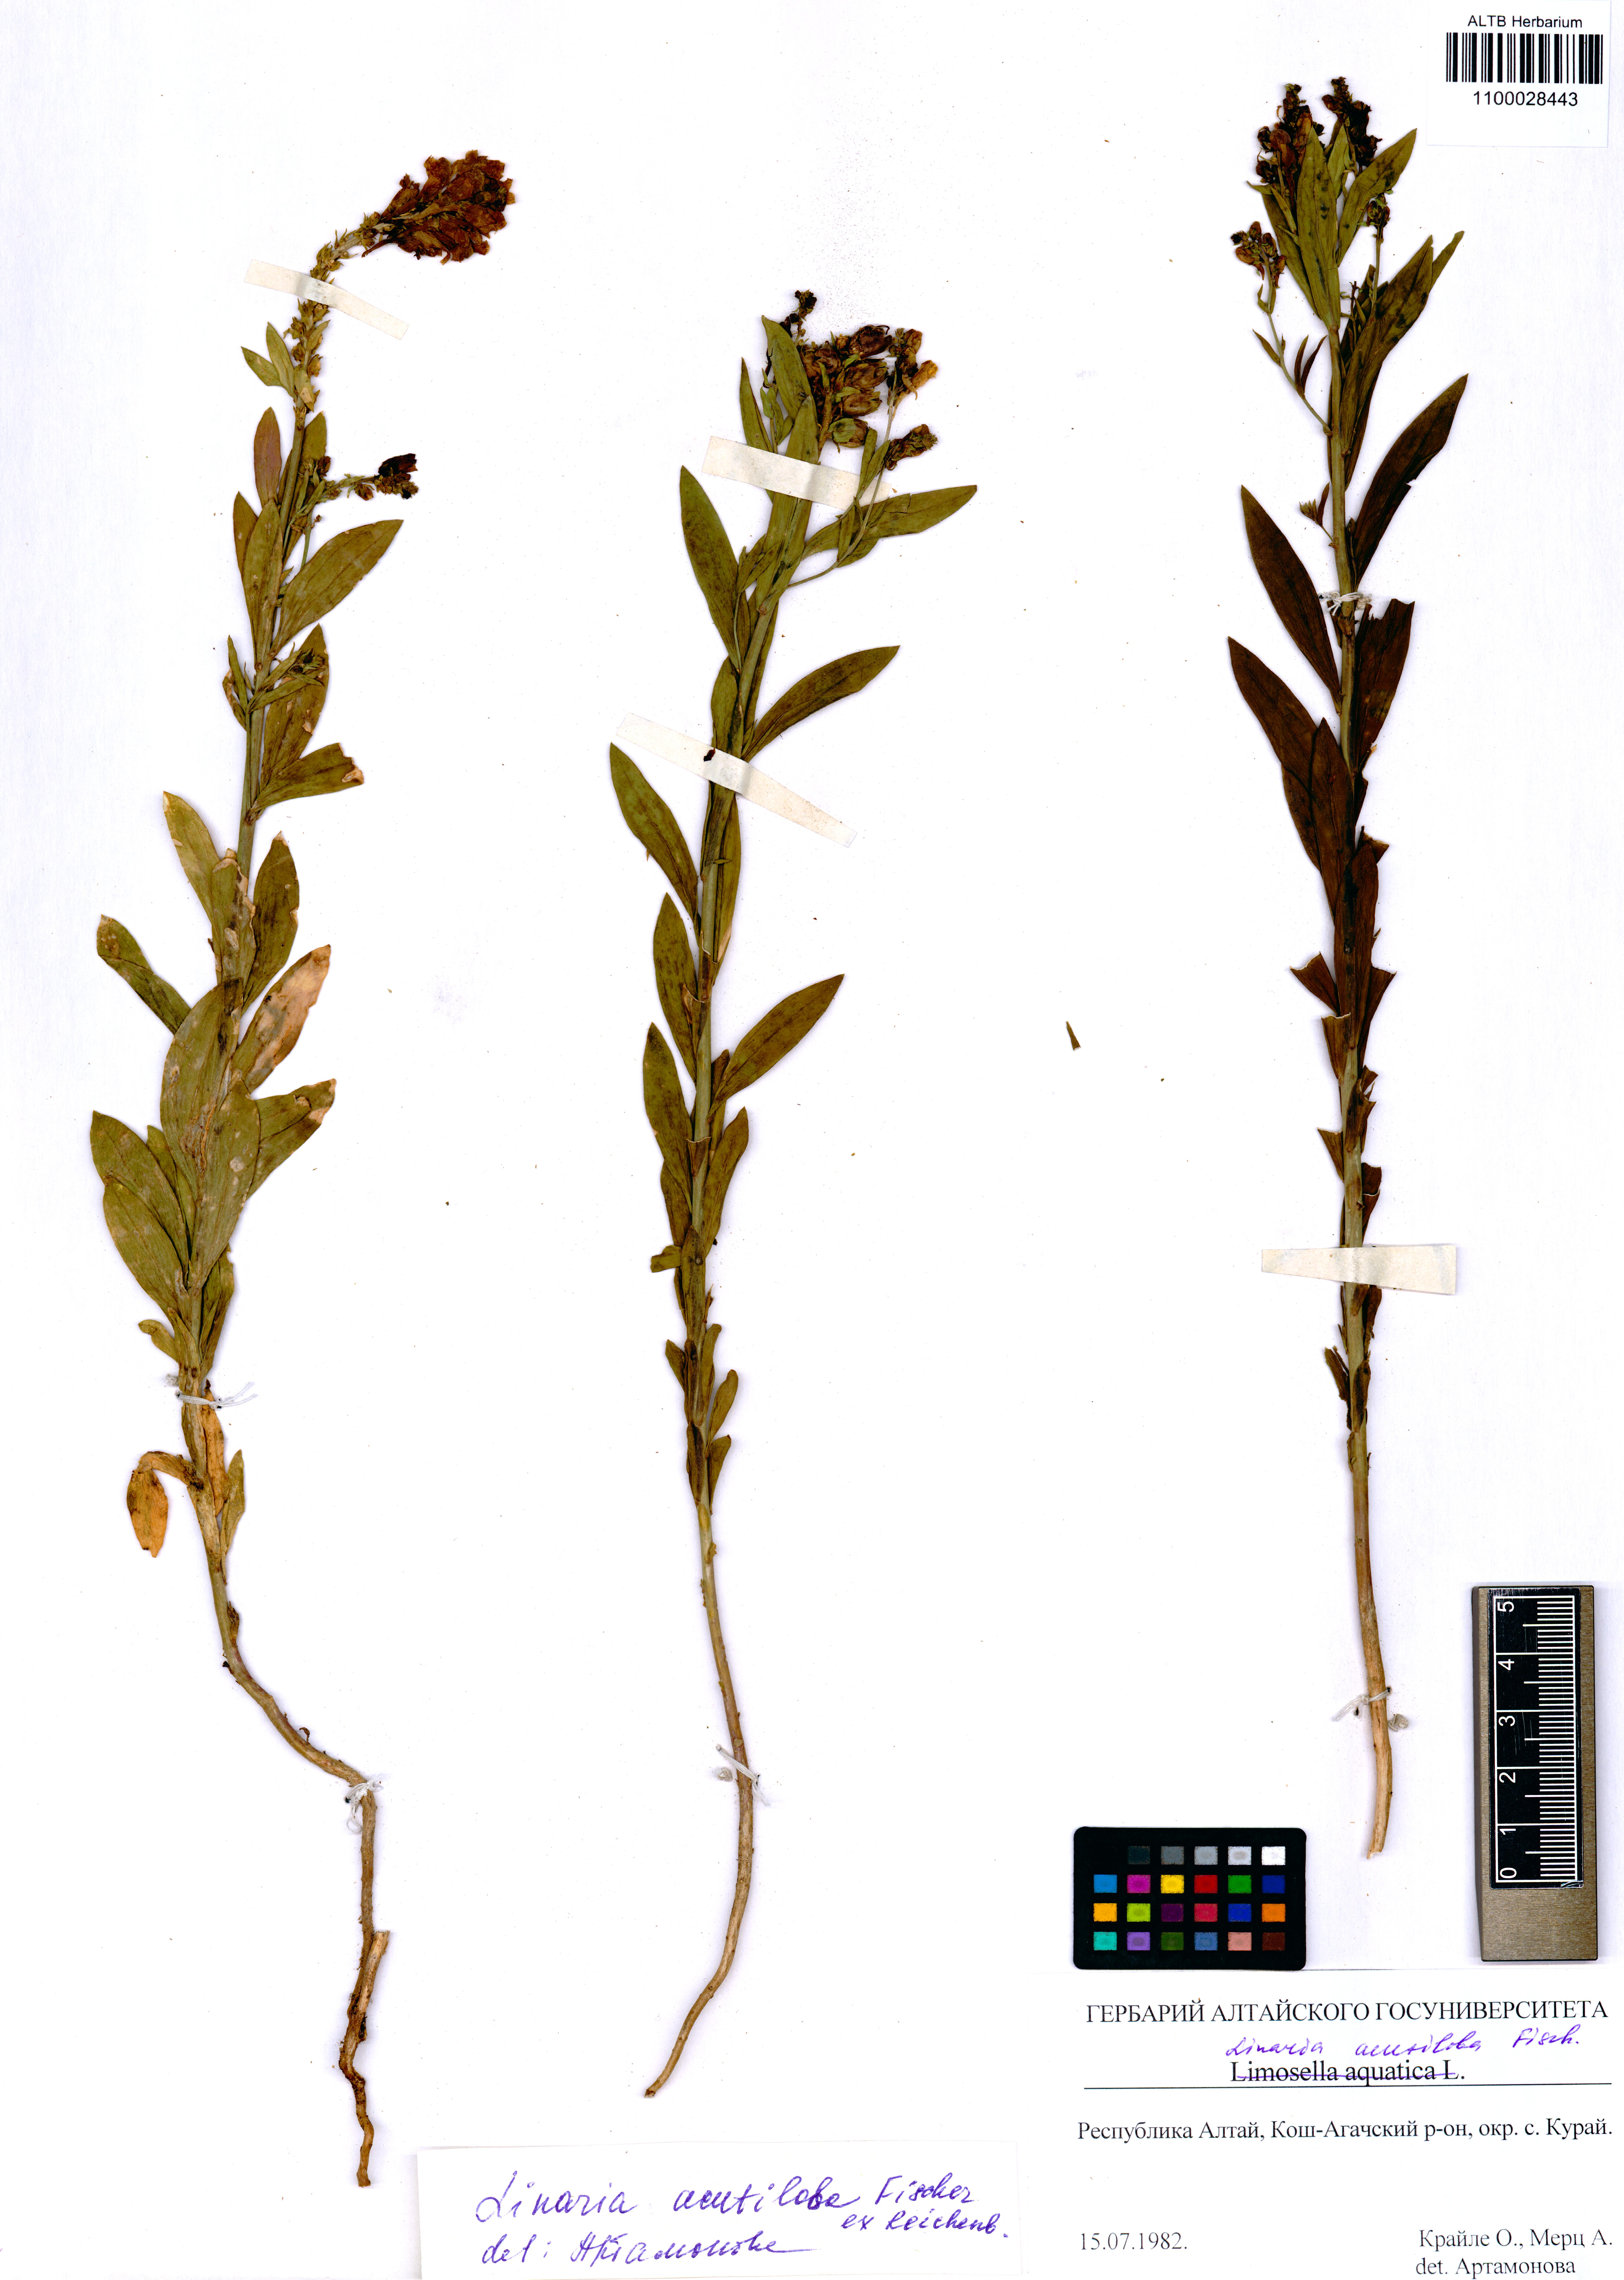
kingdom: Plantae
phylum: Tracheophyta
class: Magnoliopsida
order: Lamiales
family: Plantaginaceae
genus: Linaria
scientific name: Linaria acutiloba
